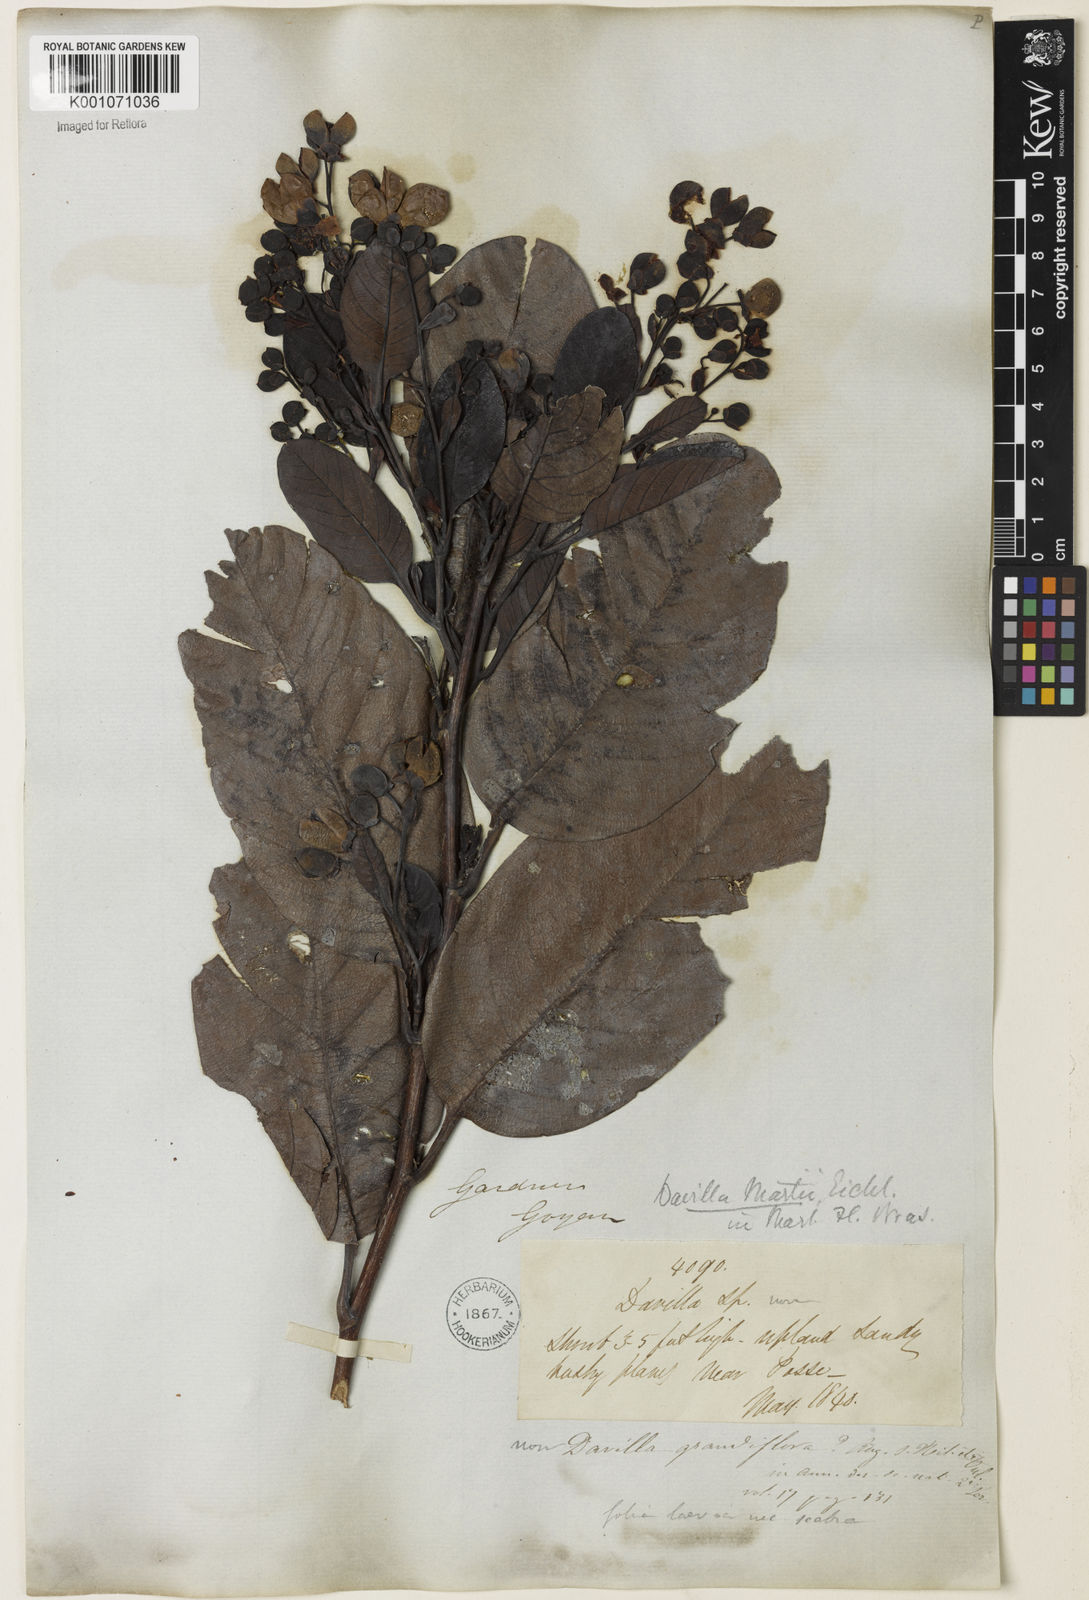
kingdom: Plantae
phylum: Tracheophyta
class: Magnoliopsida
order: Dilleniales
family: Dilleniaceae
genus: Davilla
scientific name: Davilla grandiflora
